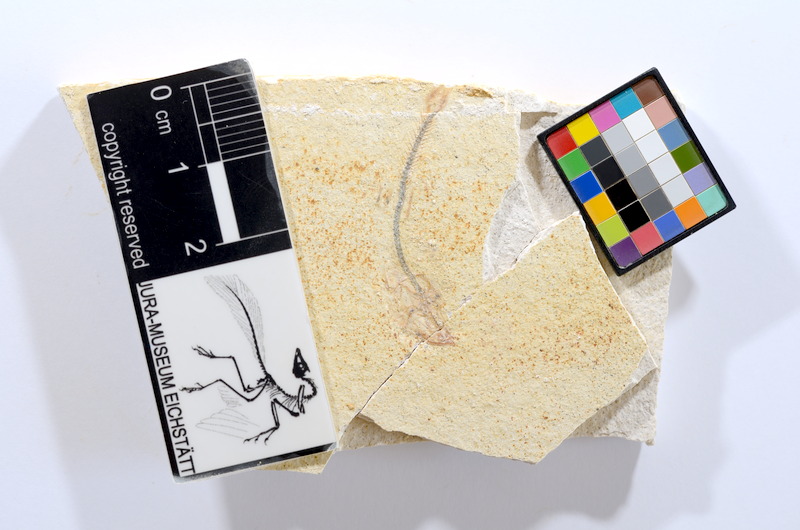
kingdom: Animalia
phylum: Chordata
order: Salmoniformes
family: Orthogonikleithridae
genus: Orthogonikleithrus
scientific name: Orthogonikleithrus hoelli
